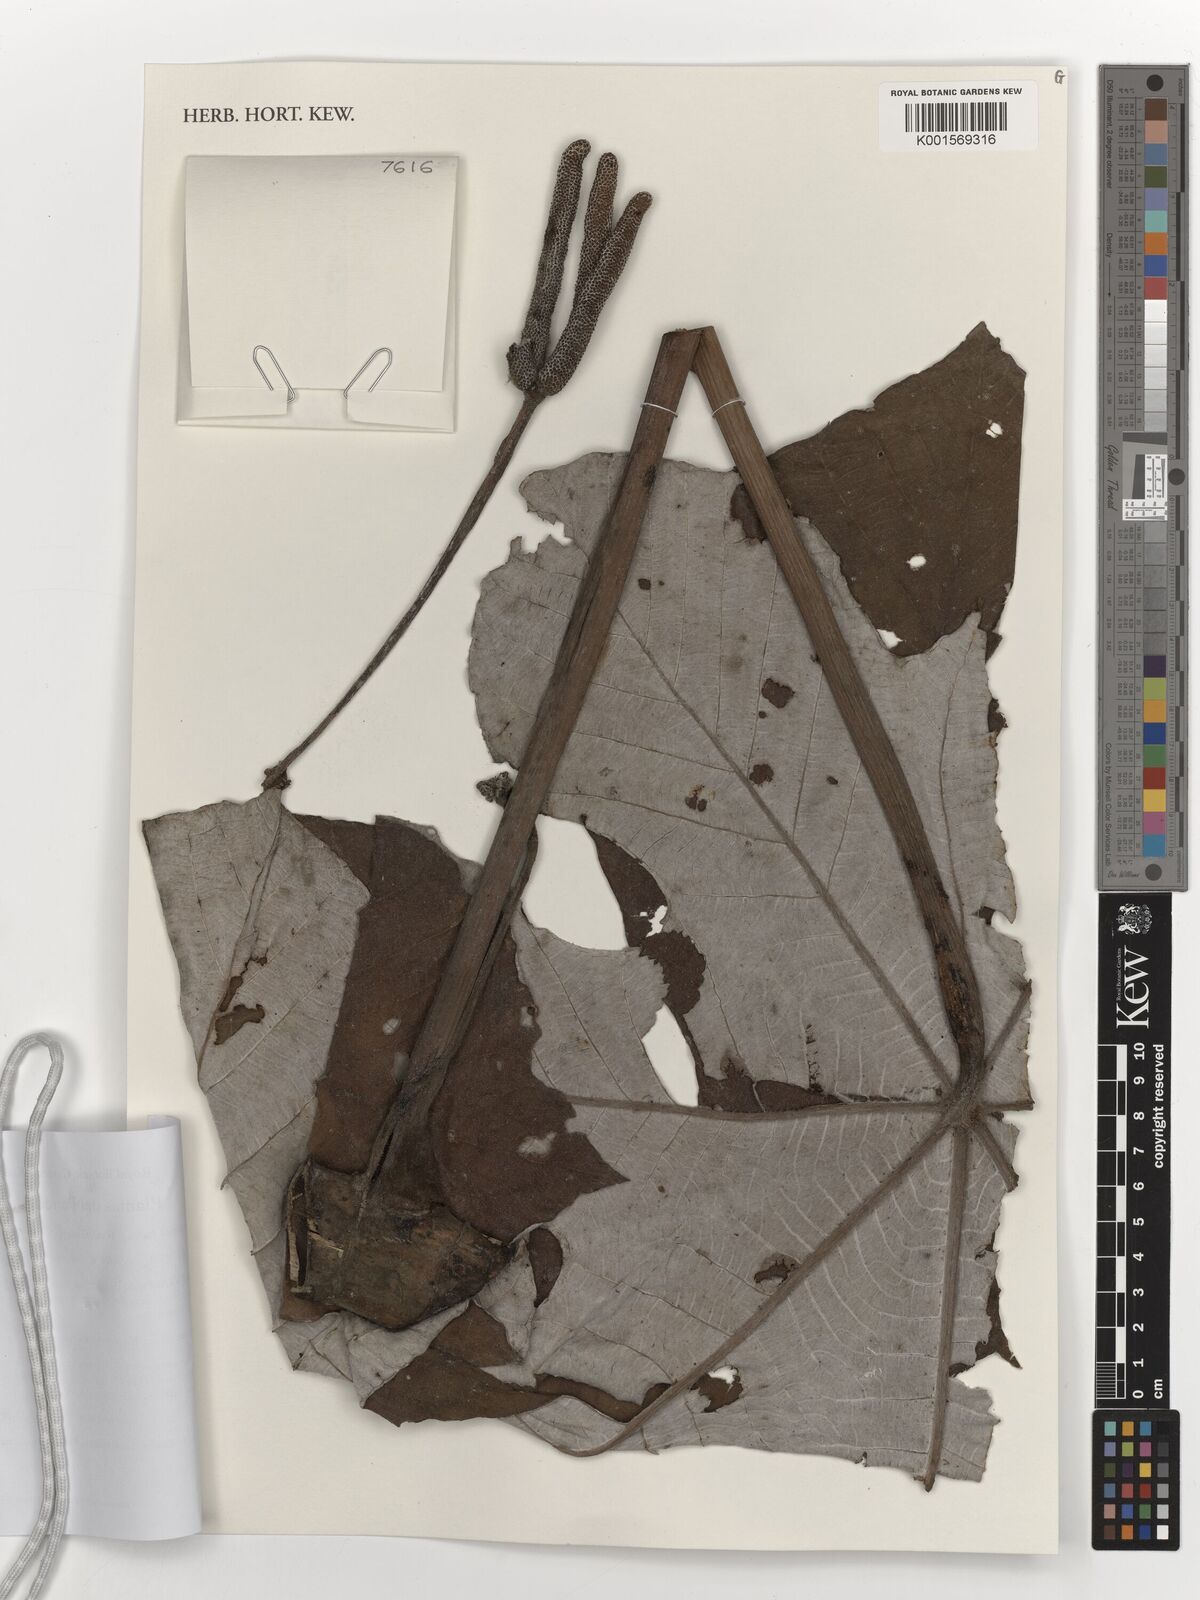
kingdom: Plantae
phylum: Tracheophyta
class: Magnoliopsida
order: Rosales
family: Urticaceae
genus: Cecropia
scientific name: Cecropia
